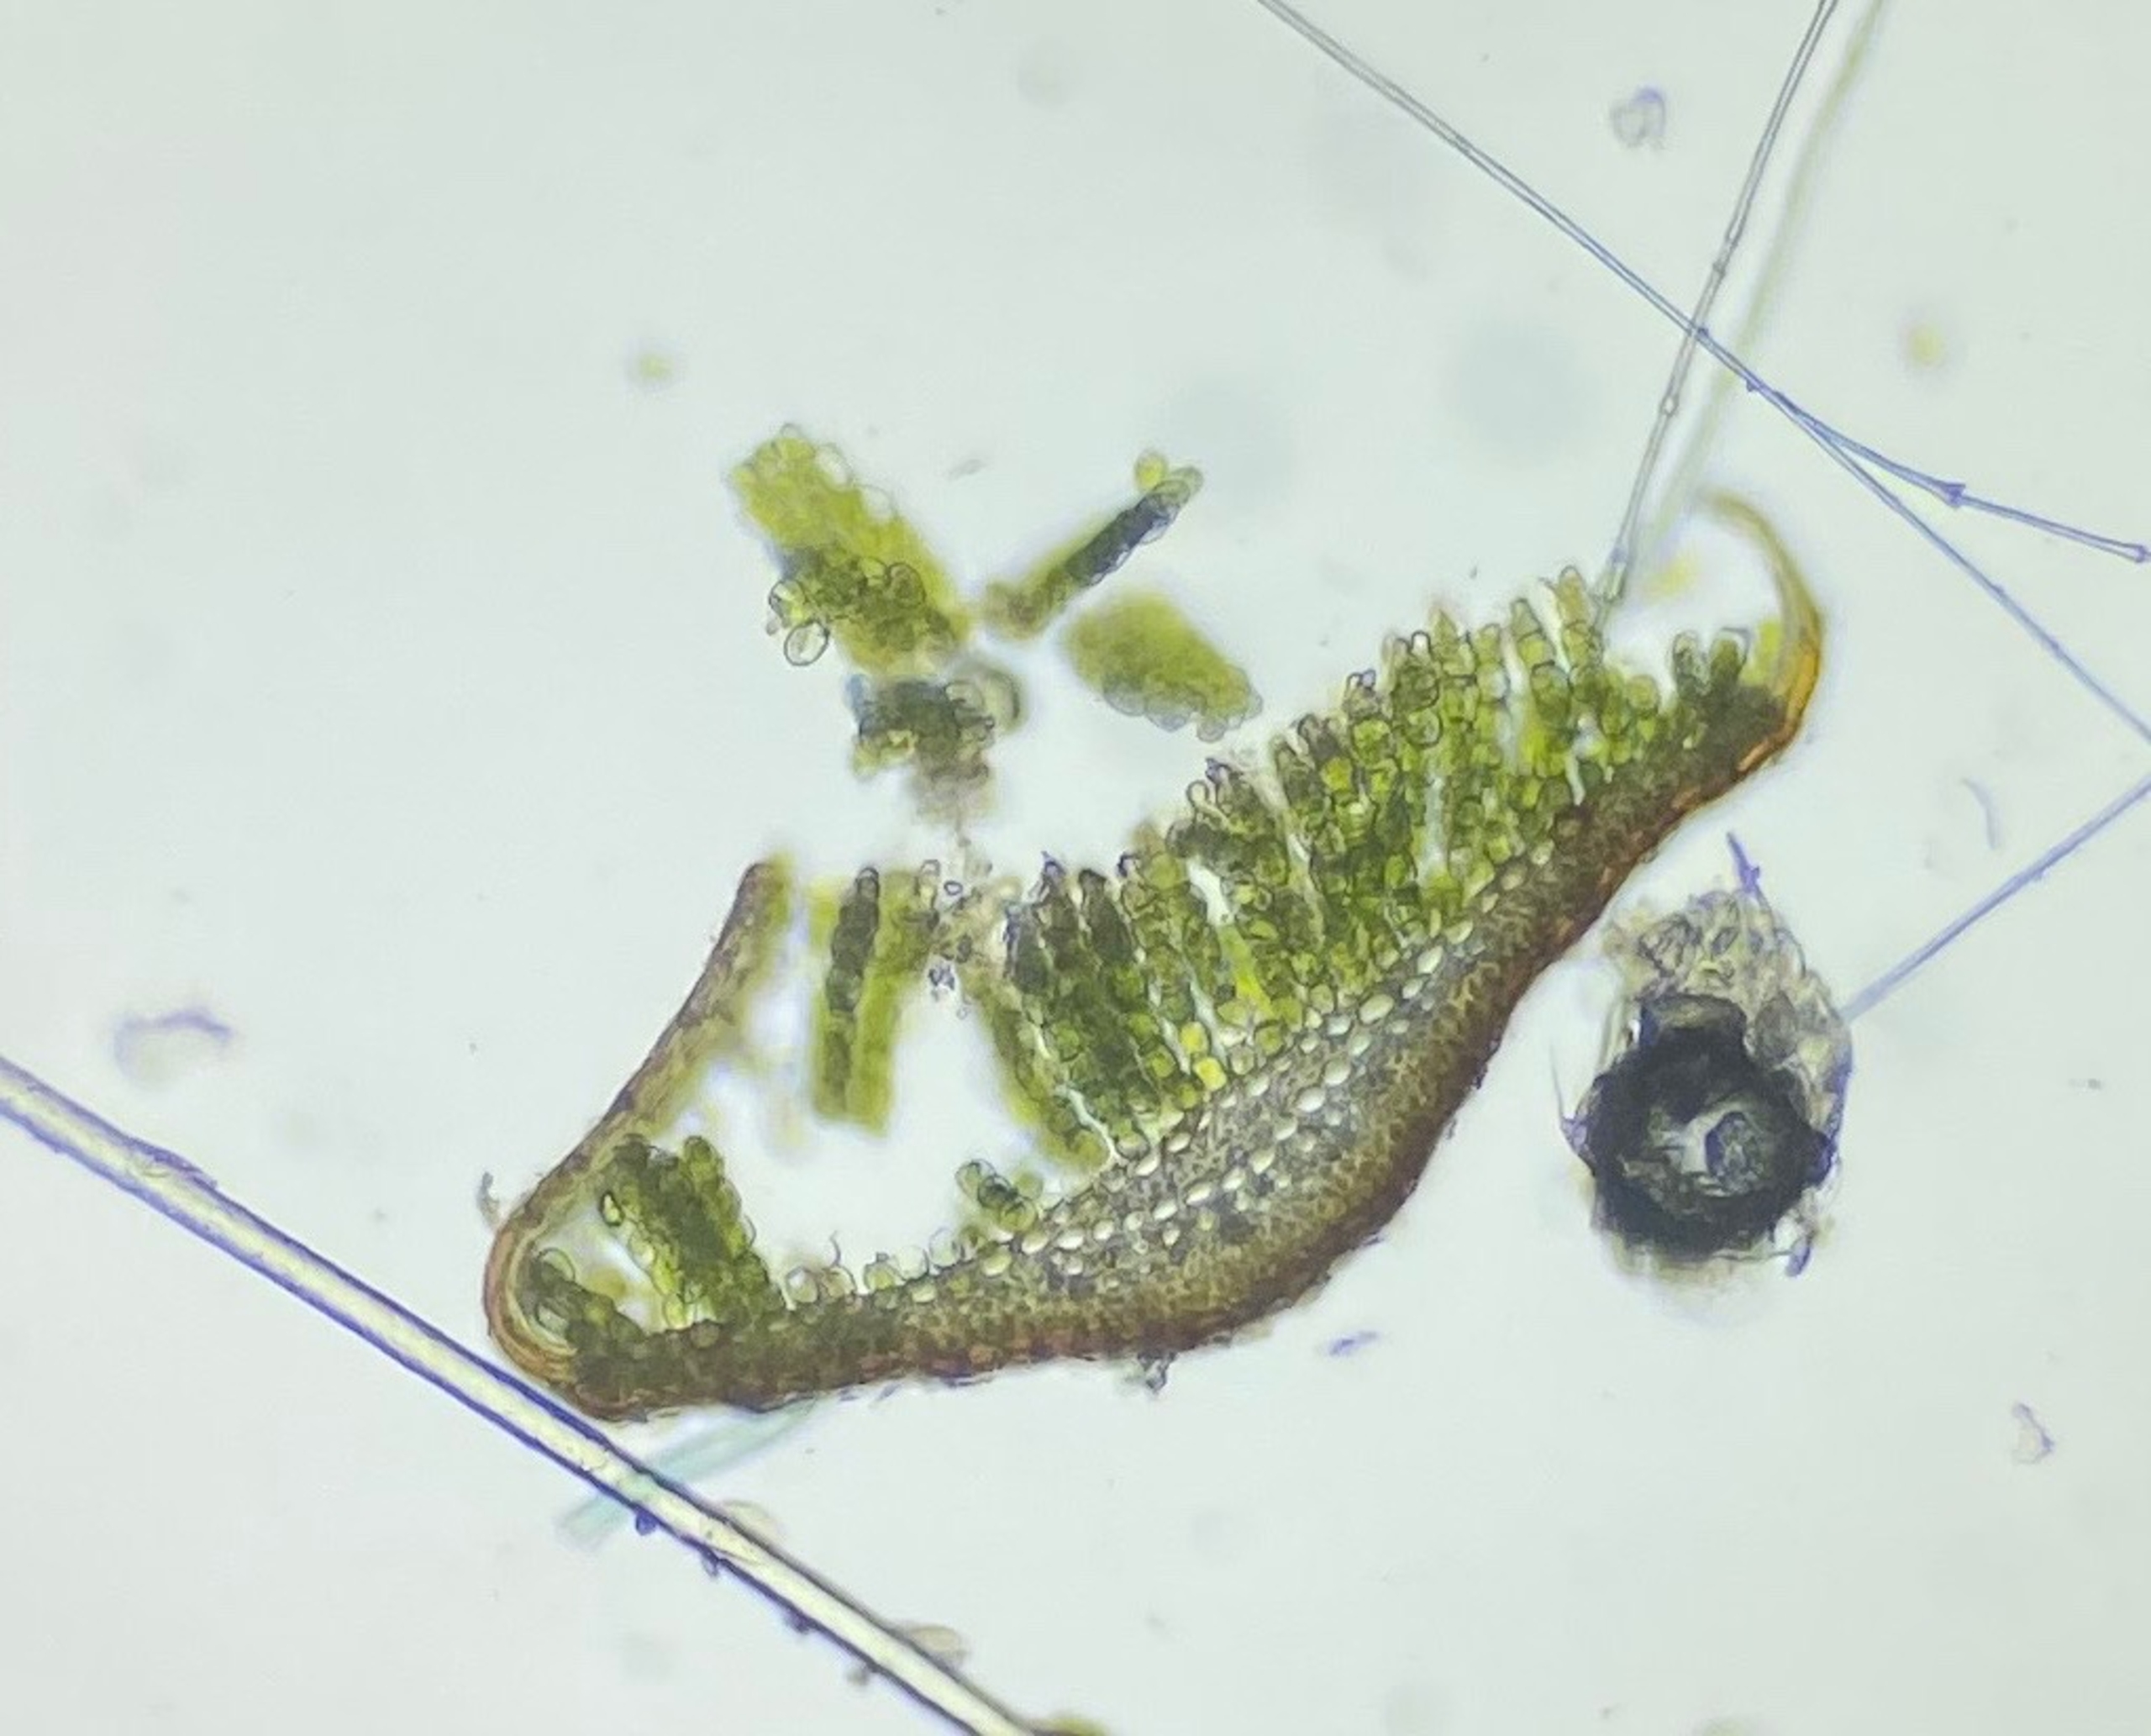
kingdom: Plantae
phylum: Bryophyta
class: Polytrichopsida
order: Polytrichales
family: Polytrichaceae
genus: Polytrichum
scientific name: Polytrichum juniperinum
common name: Ene-jomfruhår
